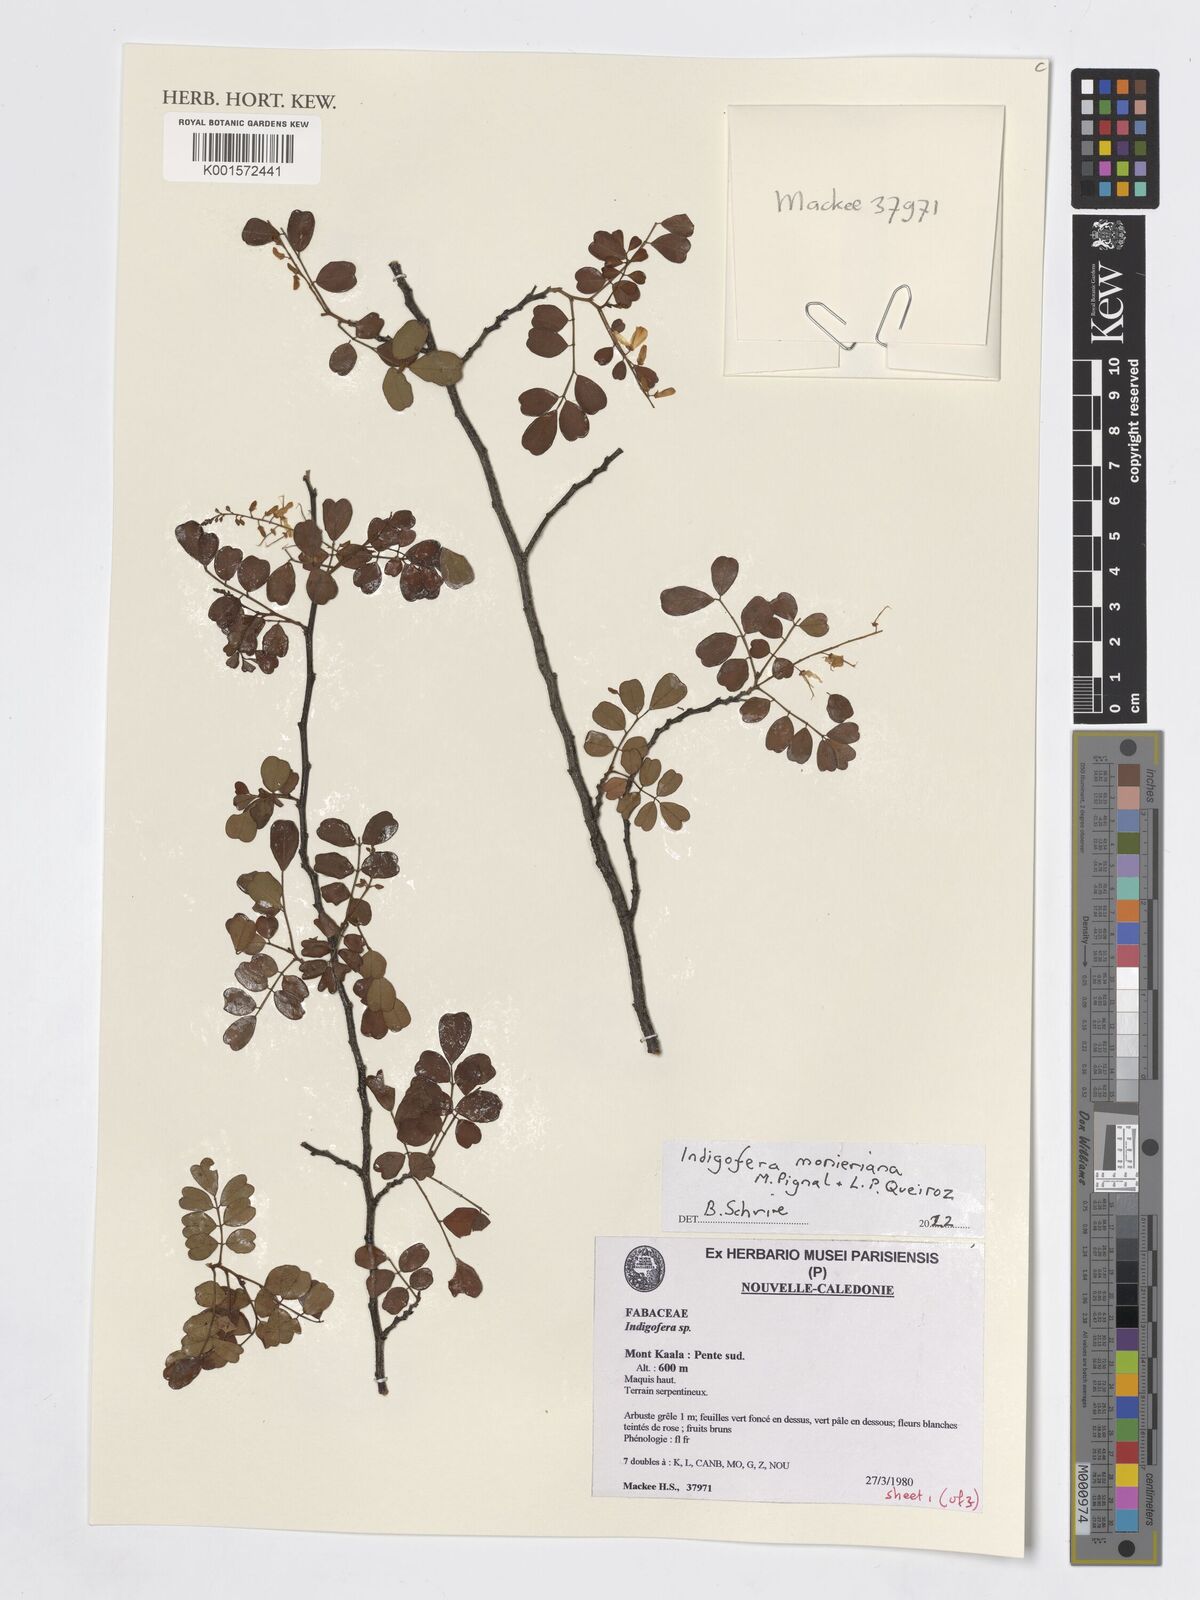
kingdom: Plantae
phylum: Tracheophyta
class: Magnoliopsida
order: Fabales
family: Fabaceae
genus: Indigofera
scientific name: Indigofera monieriana
